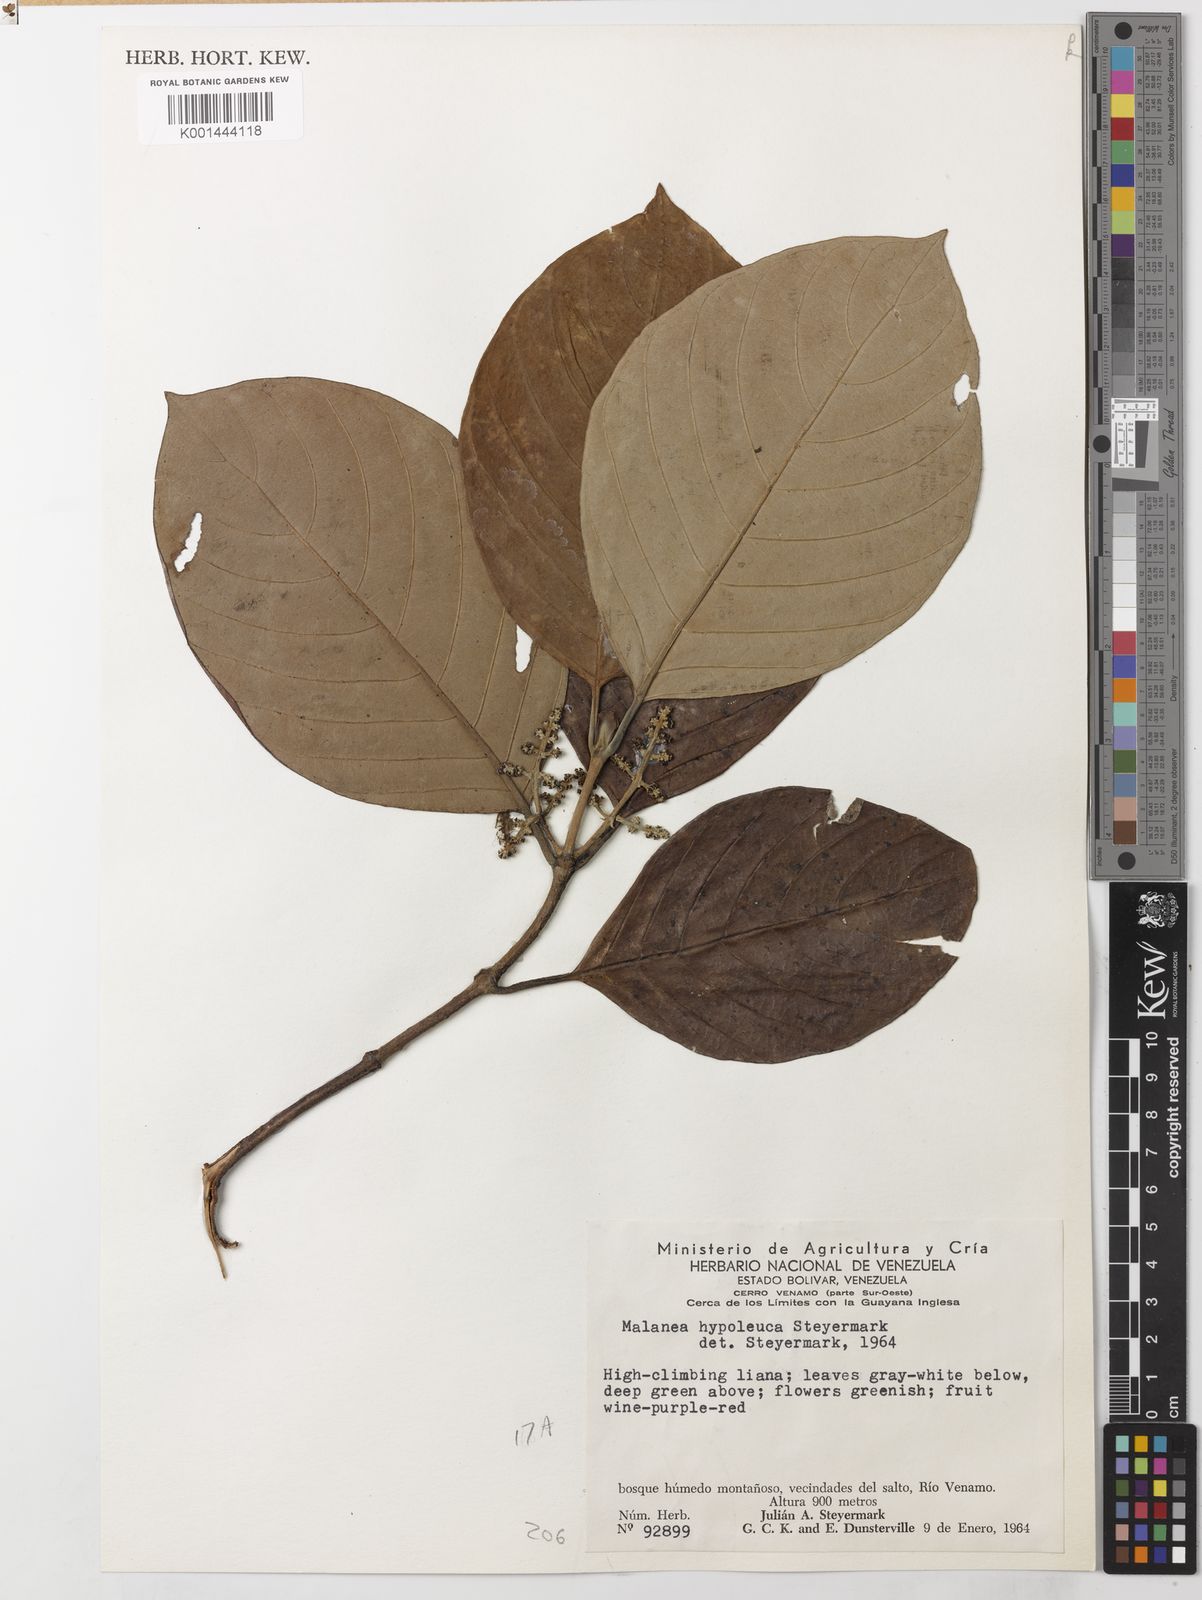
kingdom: Plantae
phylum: Tracheophyta
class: Magnoliopsida
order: Gentianales
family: Rubiaceae
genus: Malanea
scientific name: Malanea hypoleuca
